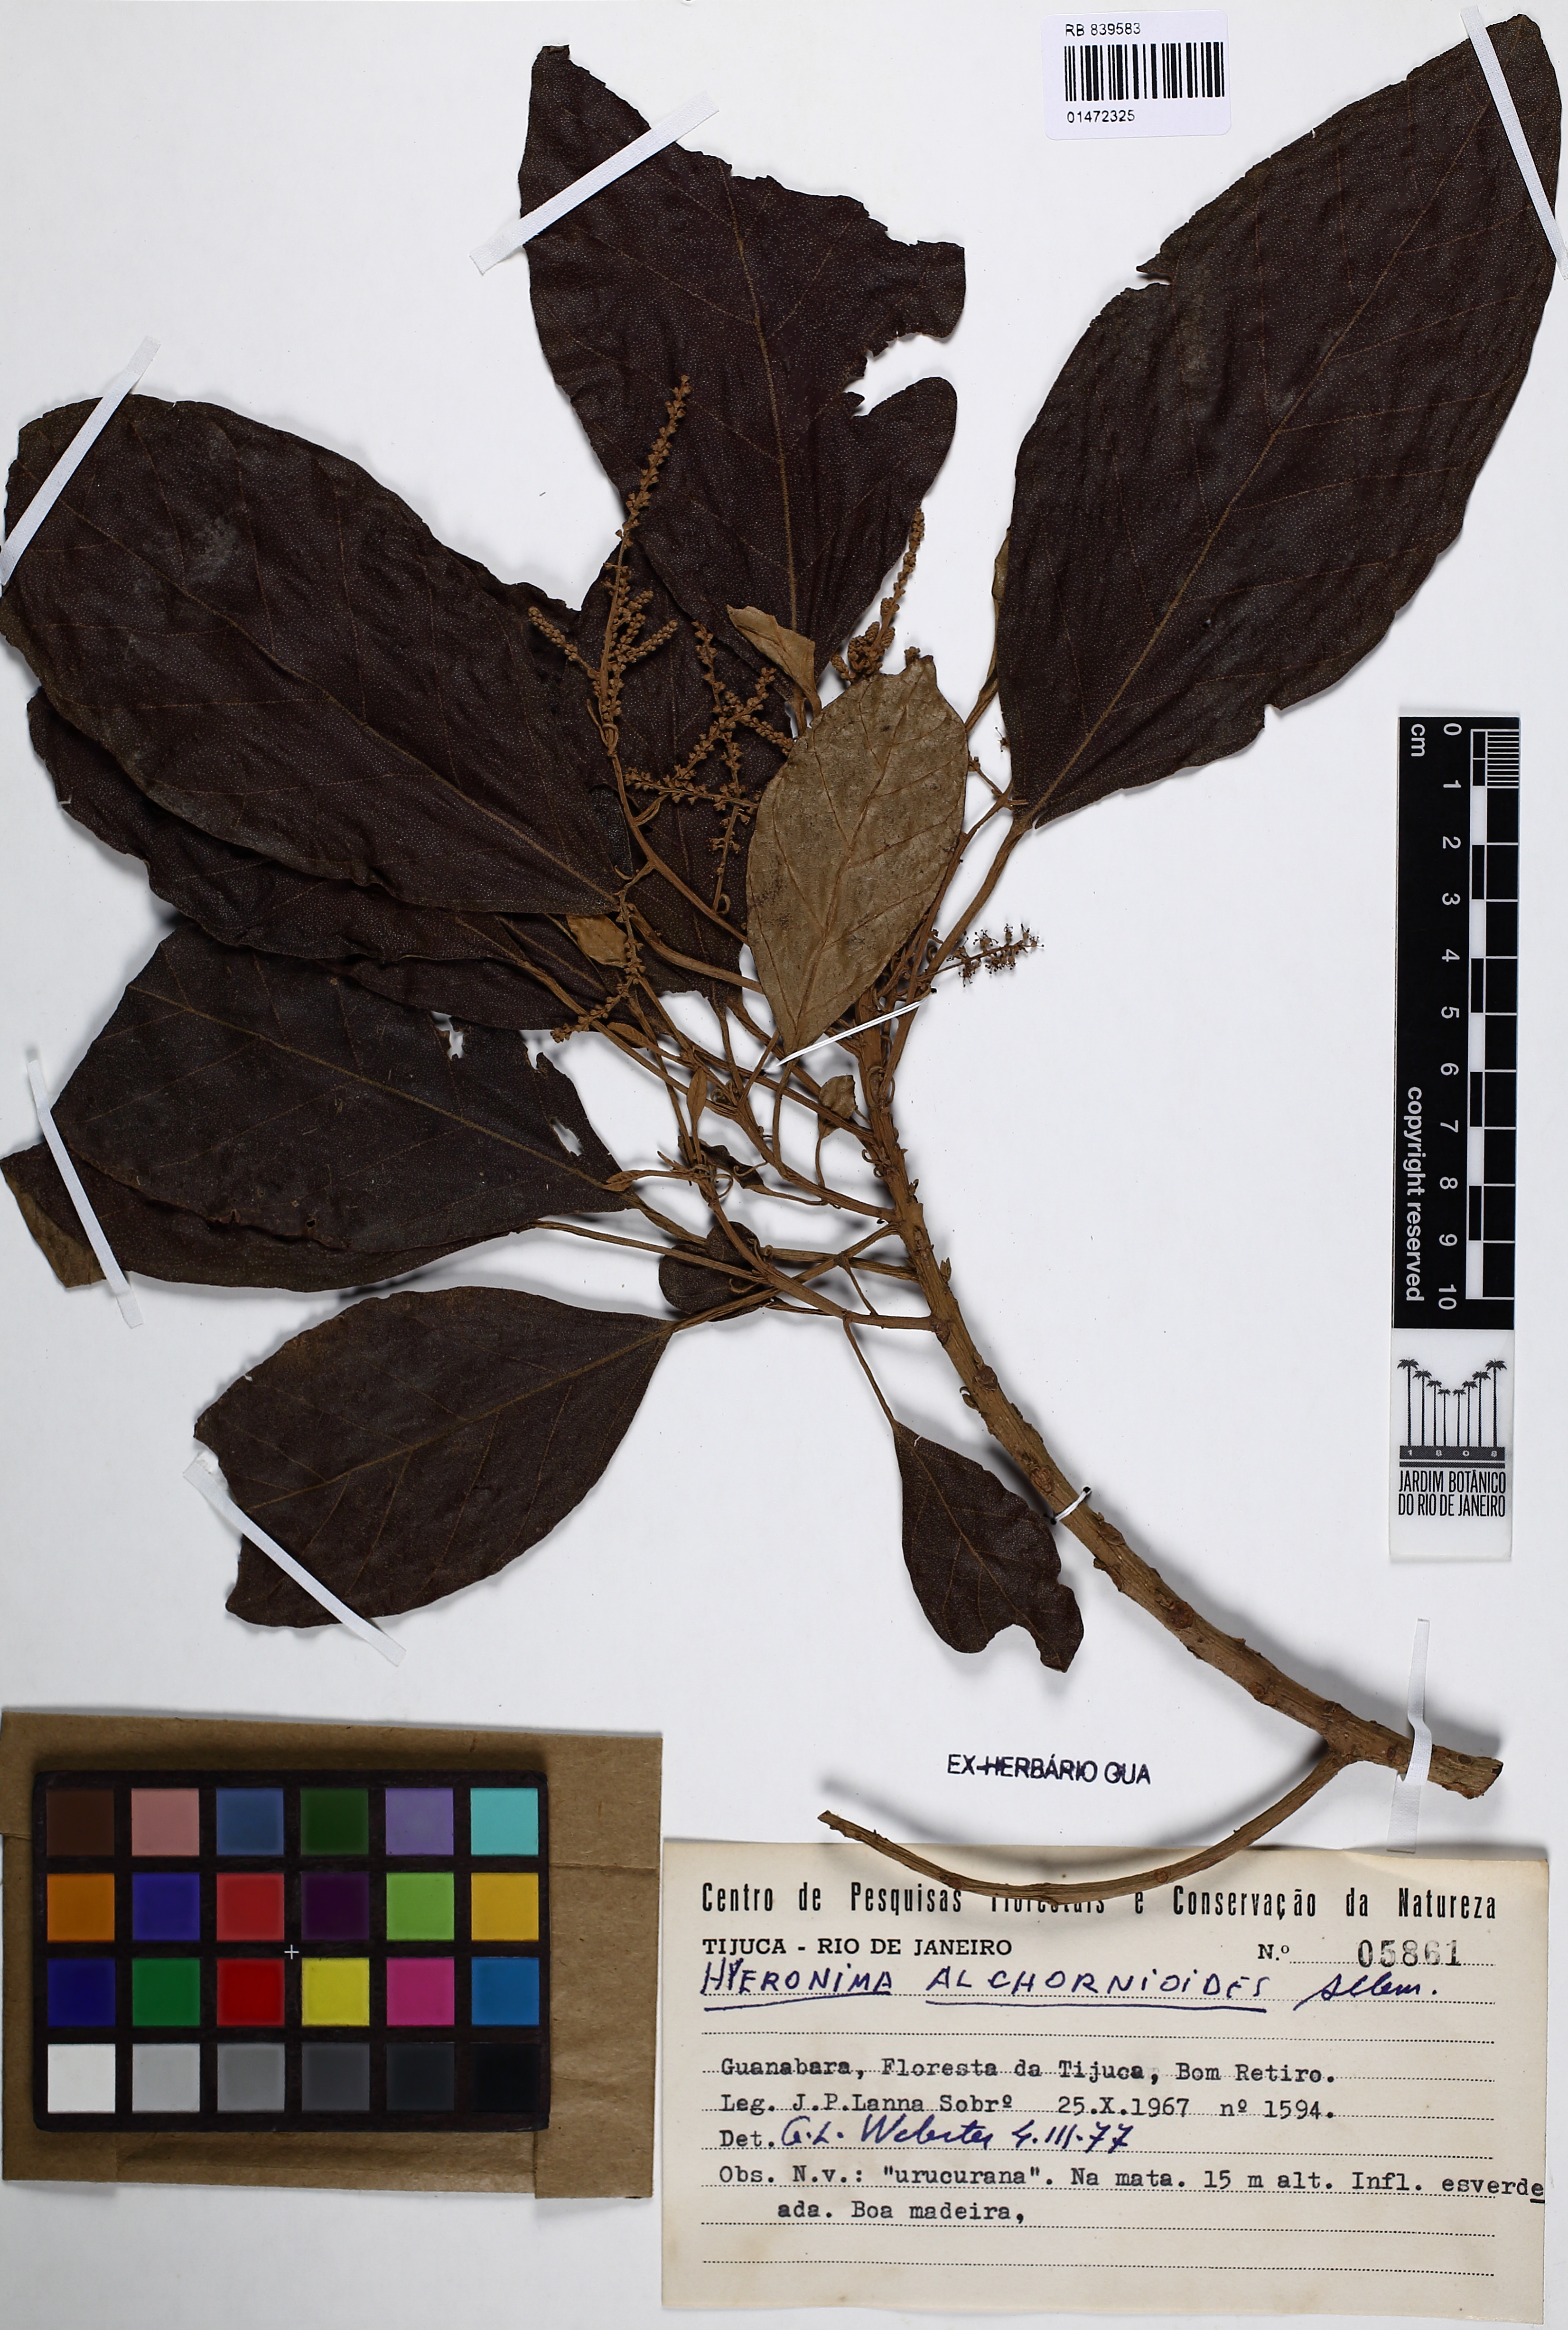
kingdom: Plantae
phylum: Tracheophyta
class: Magnoliopsida
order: Malpighiales
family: Phyllanthaceae
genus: Hieronyma
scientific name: Hieronyma alchorneoides
